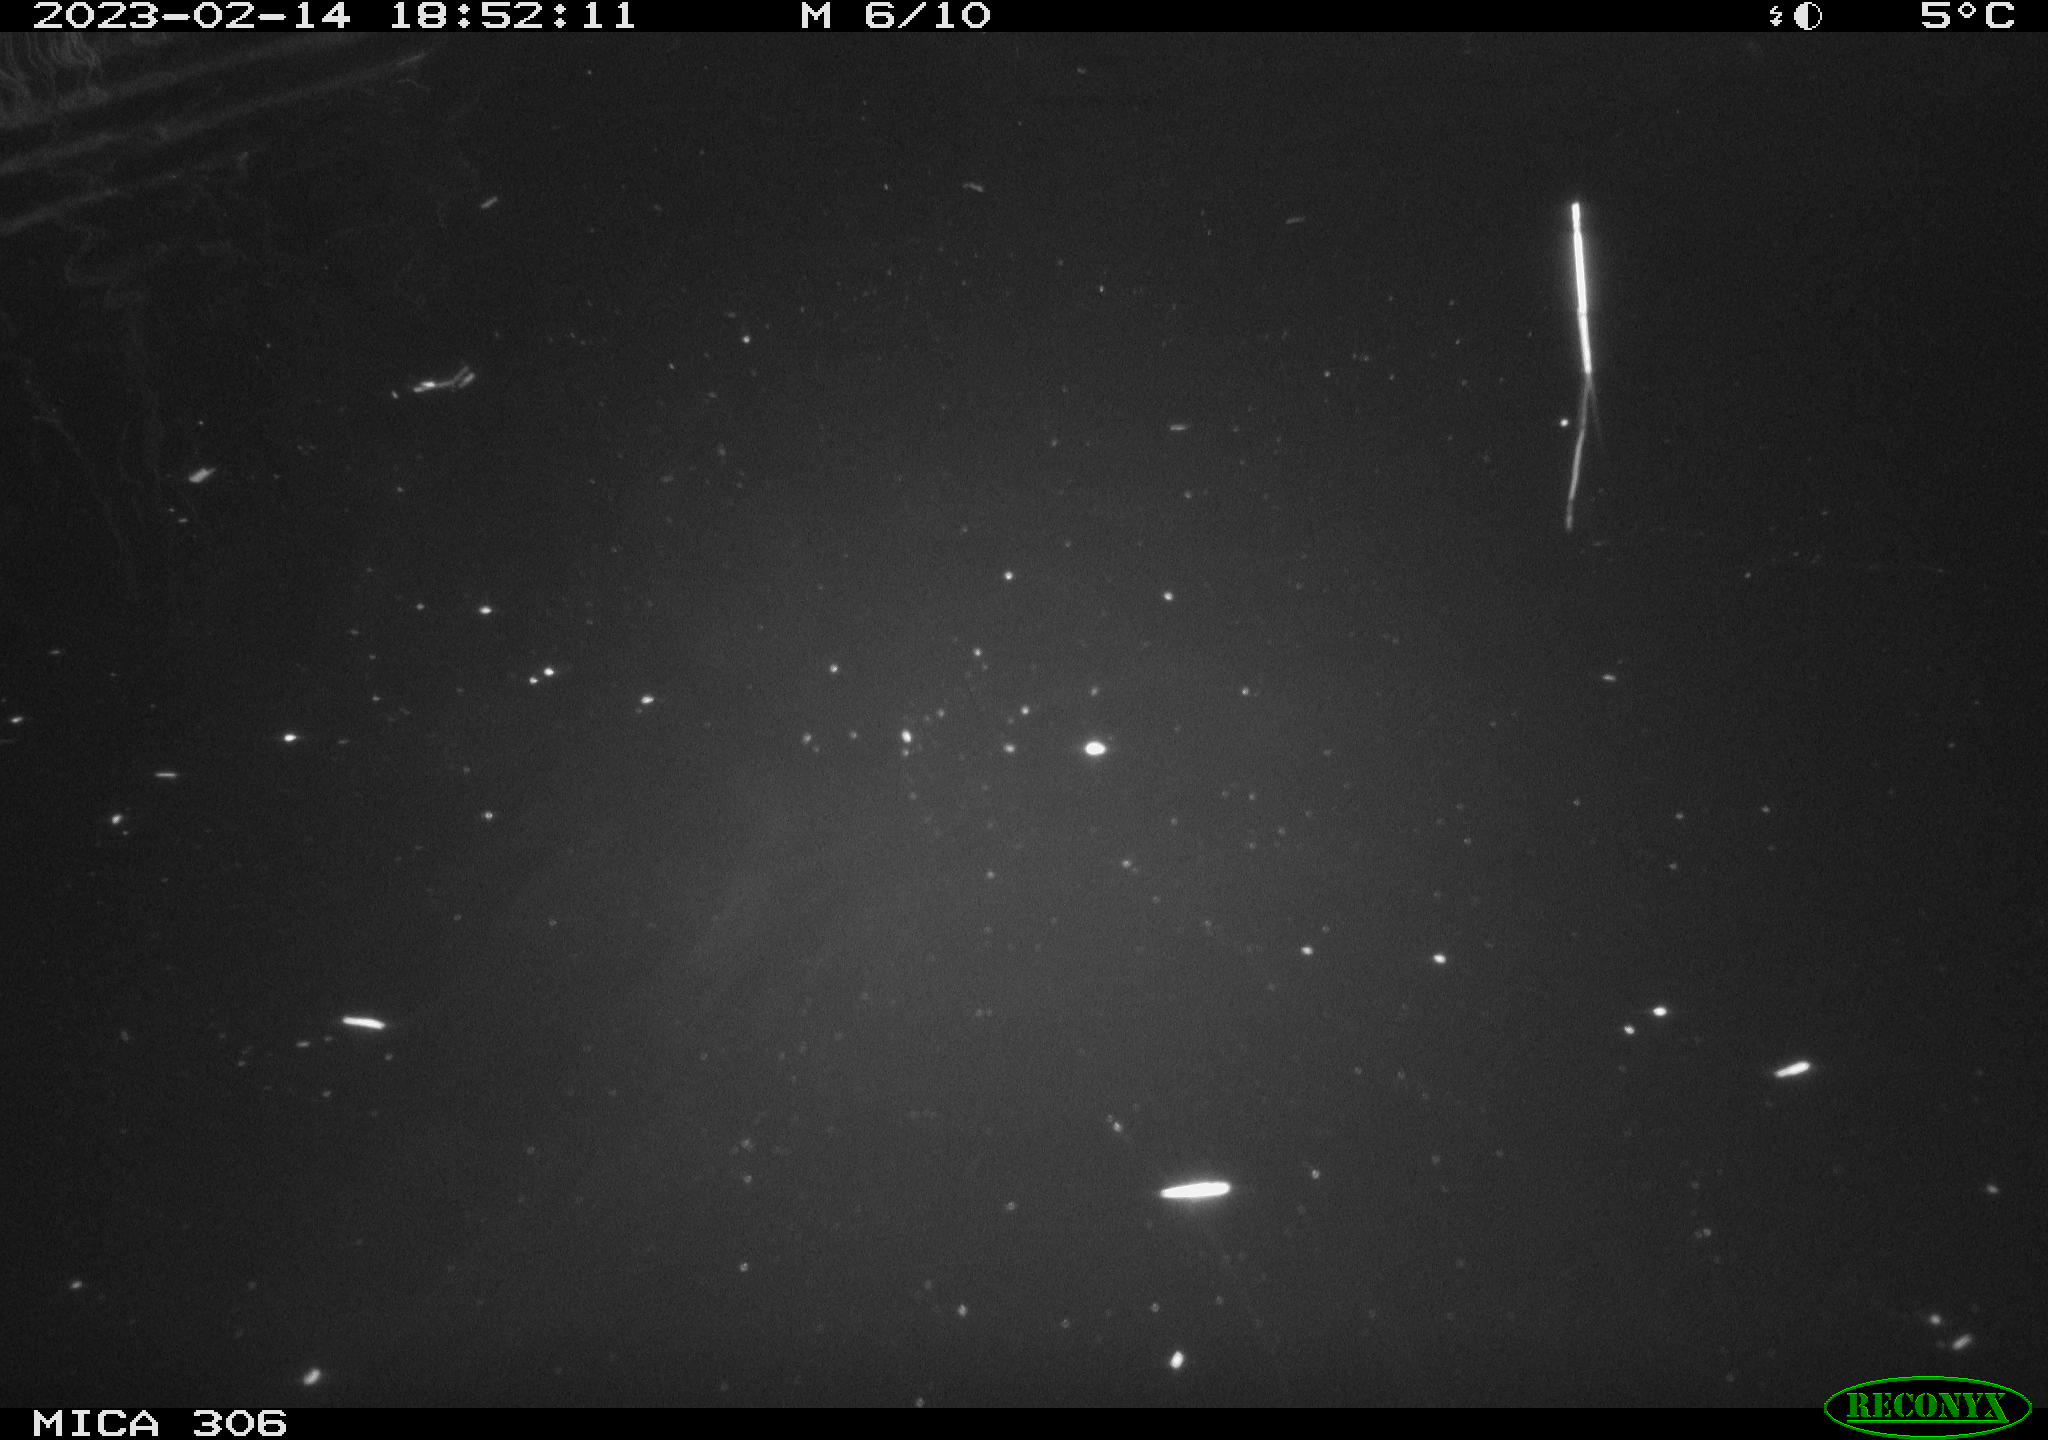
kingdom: Animalia
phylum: Chordata
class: Mammalia
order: Rodentia
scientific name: Rodentia
